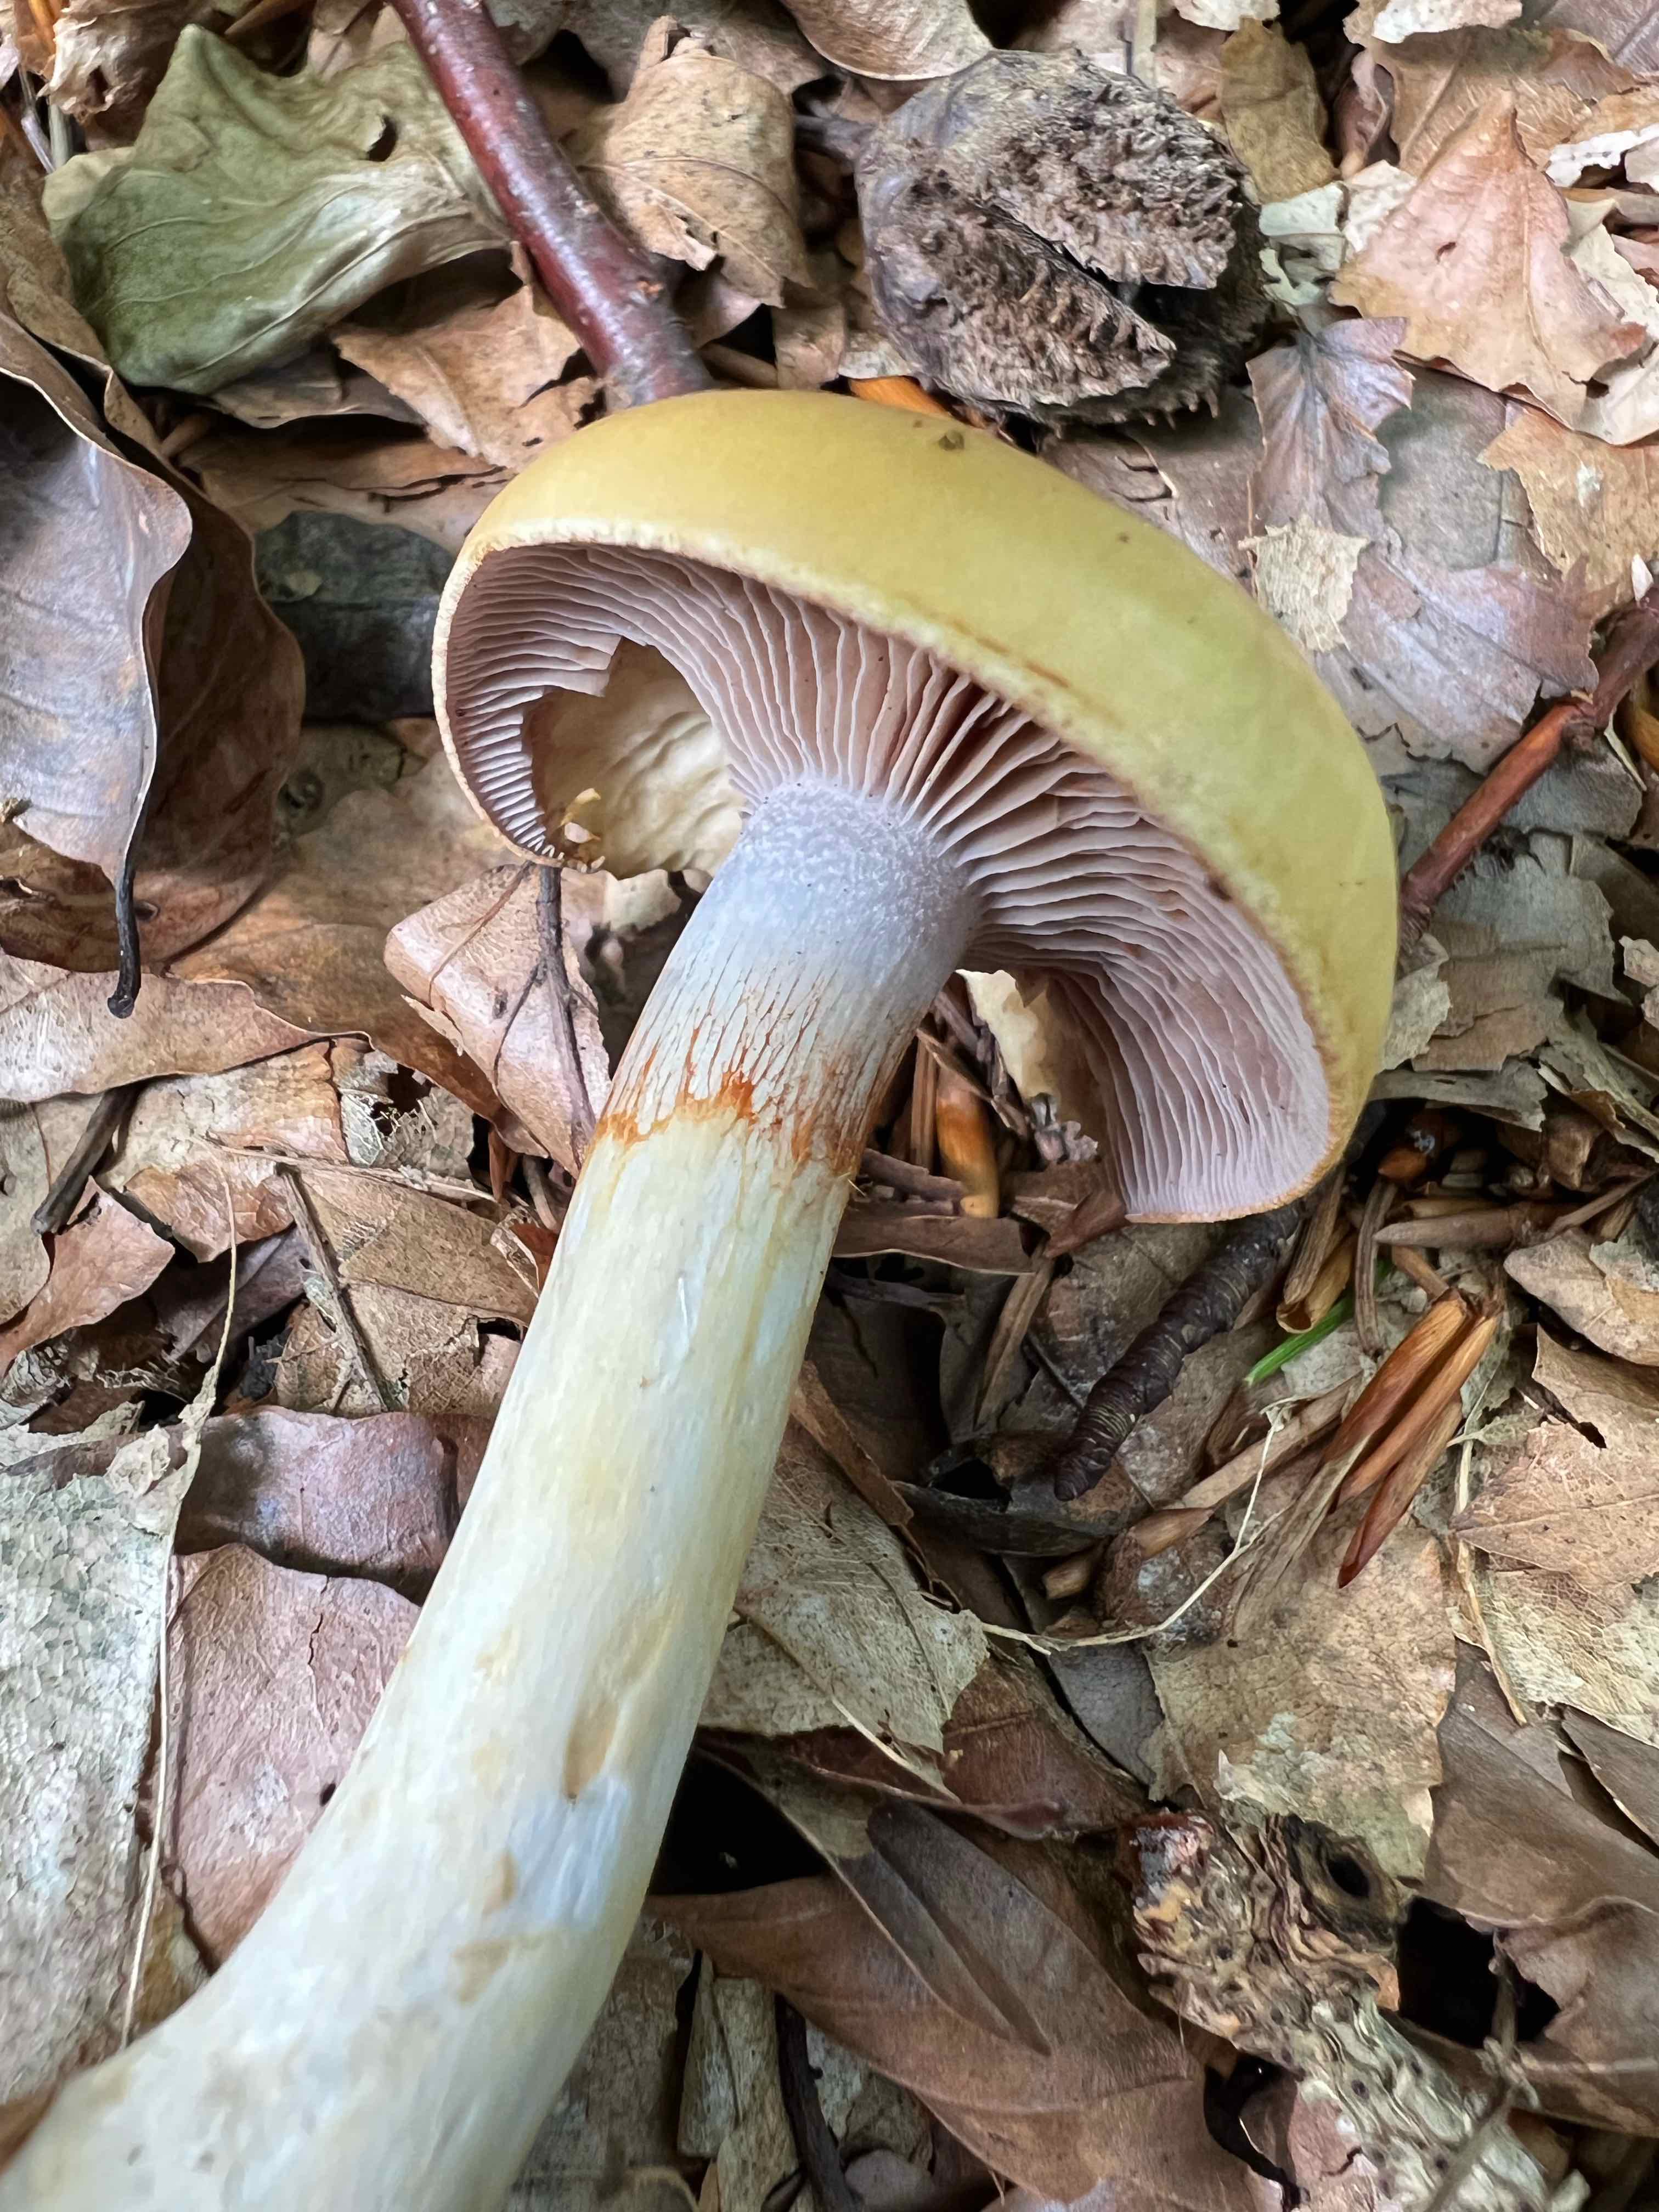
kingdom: Fungi
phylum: Basidiomycota
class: Agaricomycetes
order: Agaricales
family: Cortinariaceae
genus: Cortinarius
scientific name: Cortinarius delibutus
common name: gul slørhat
